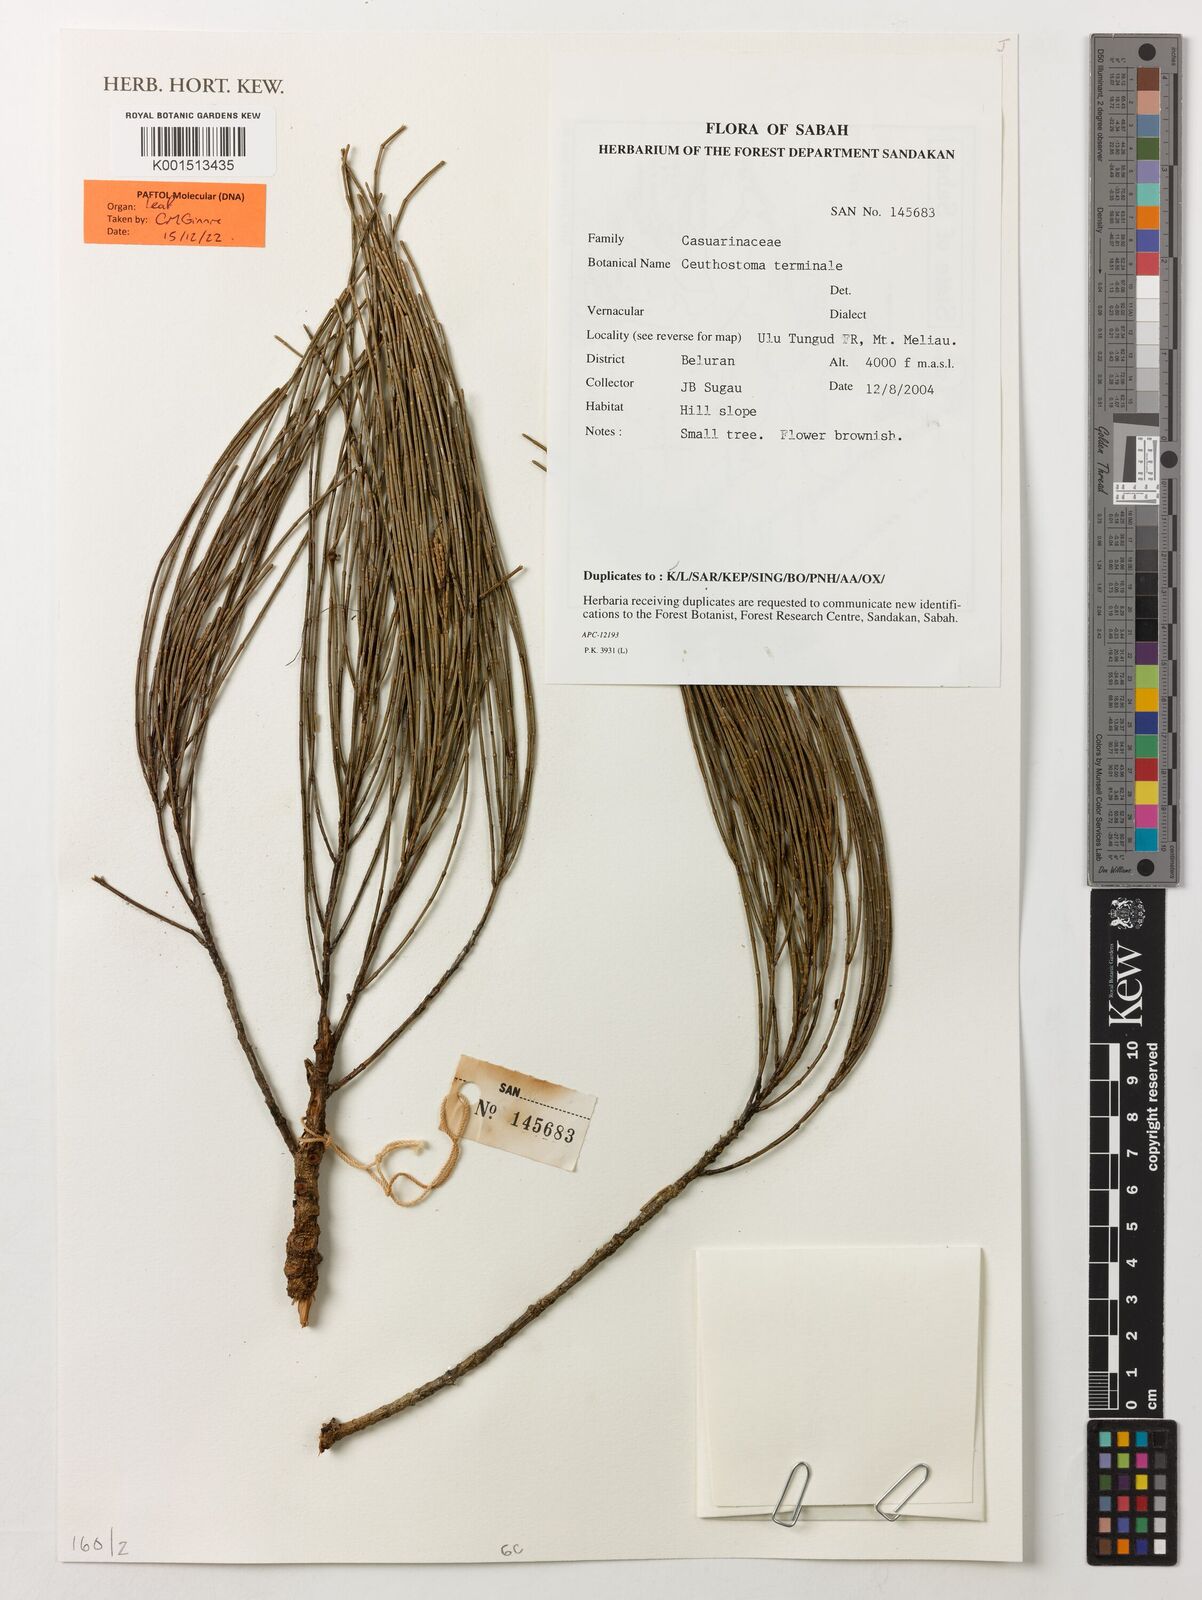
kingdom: Plantae
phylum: Tracheophyta
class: Magnoliopsida
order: Fagales
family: Casuarinaceae
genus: Ceuthostoma
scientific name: Ceuthostoma terminale
